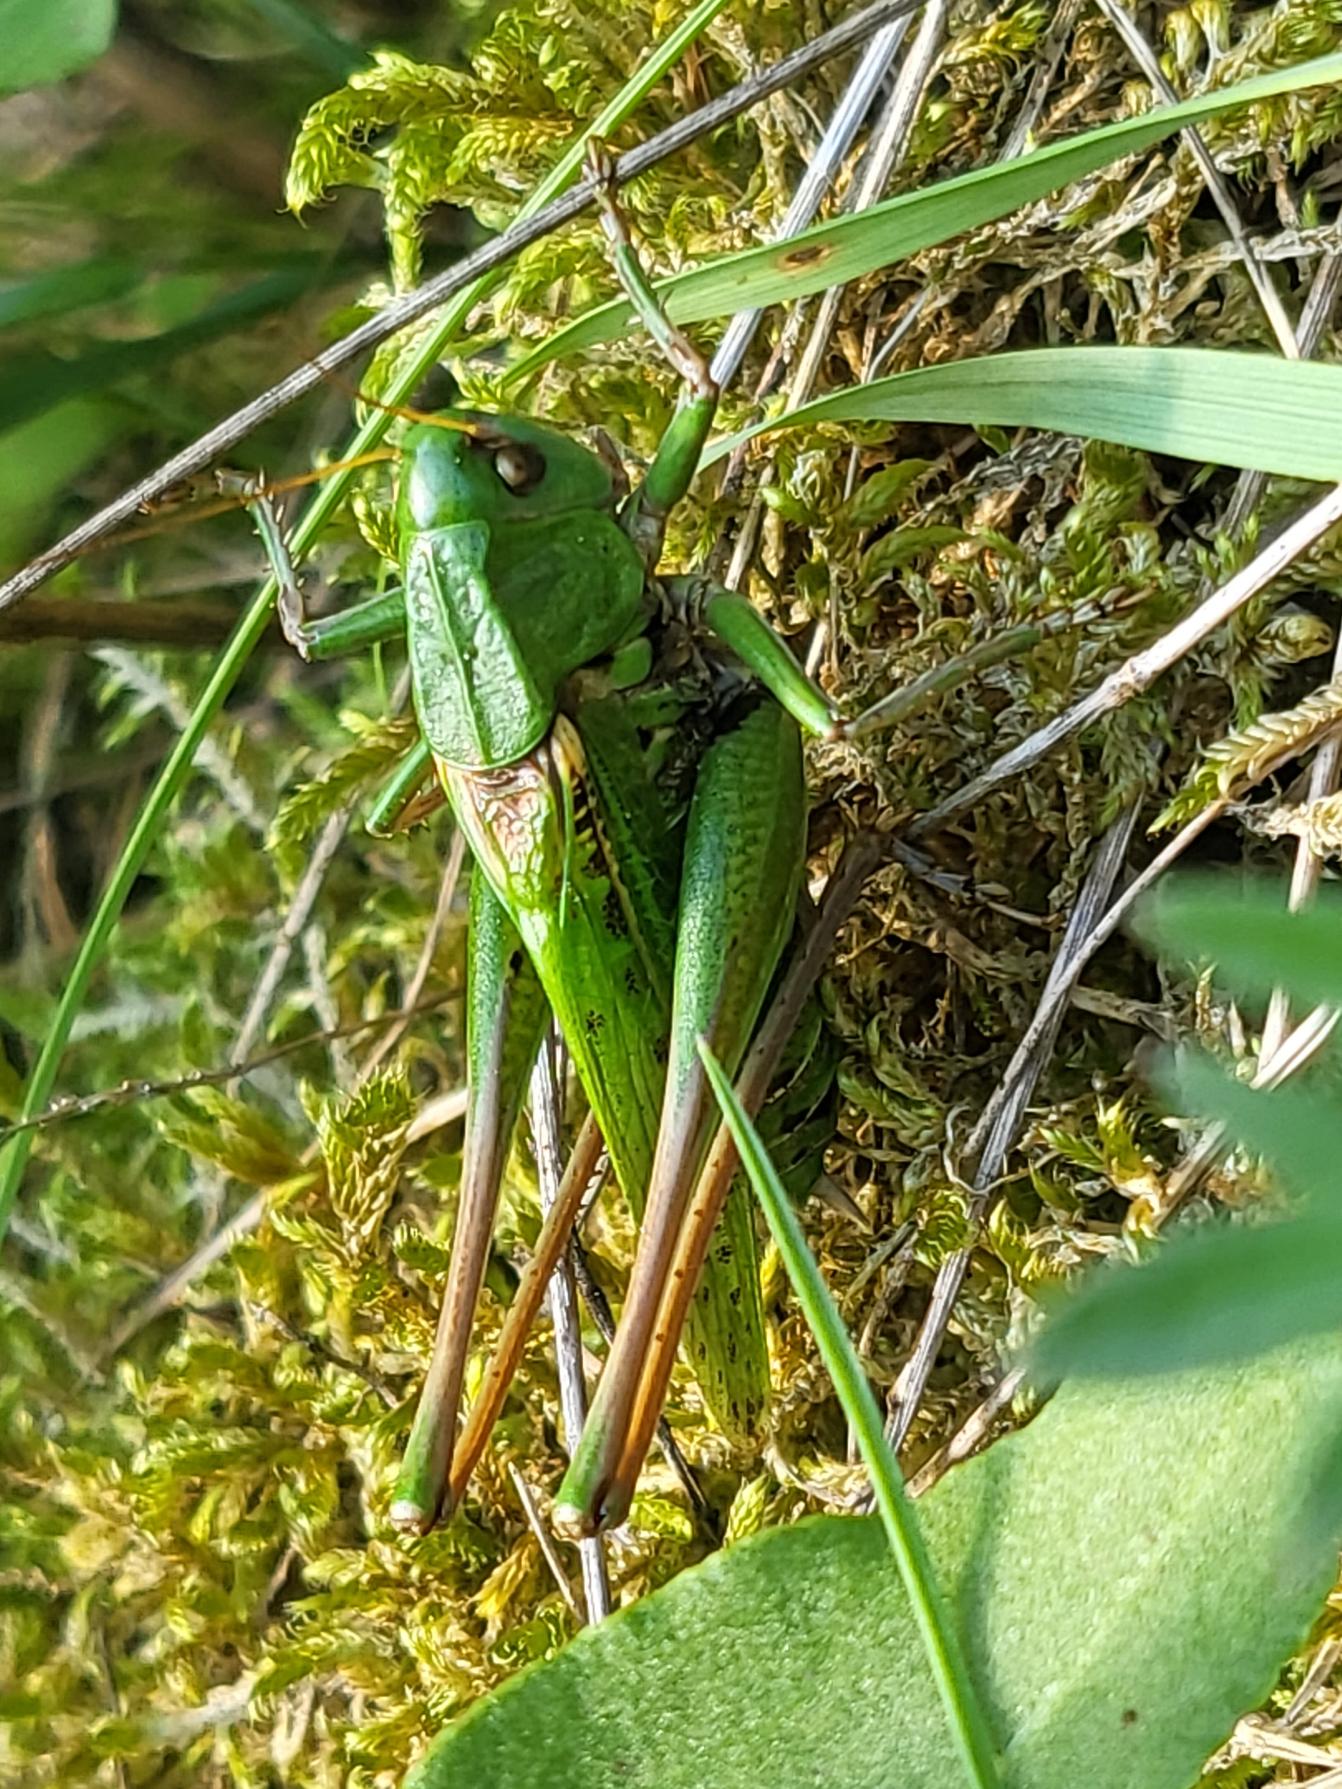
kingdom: Animalia
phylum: Arthropoda
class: Insecta
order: Orthoptera
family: Tettigoniidae
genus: Decticus
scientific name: Decticus verrucivorus
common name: Vortebider
